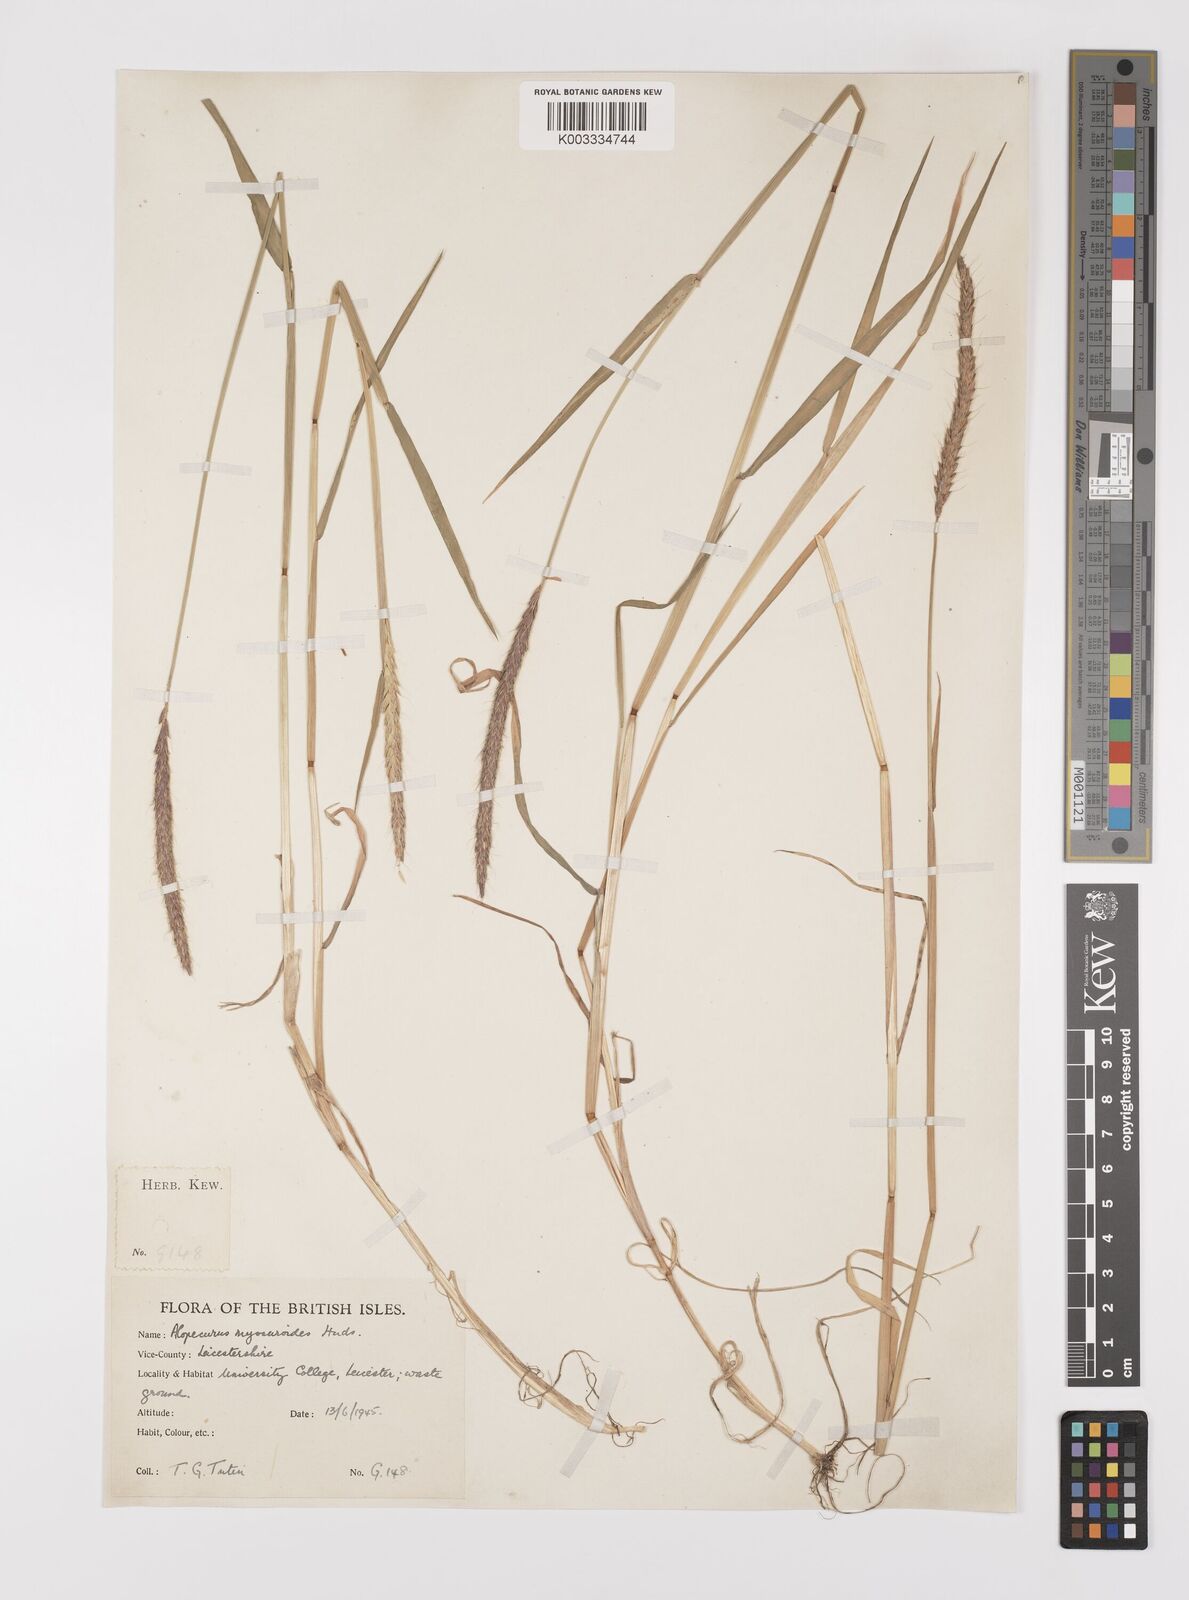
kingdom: Plantae
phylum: Tracheophyta
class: Liliopsida
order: Poales
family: Poaceae
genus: Alopecurus
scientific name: Alopecurus myosuroides
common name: Black-grass
